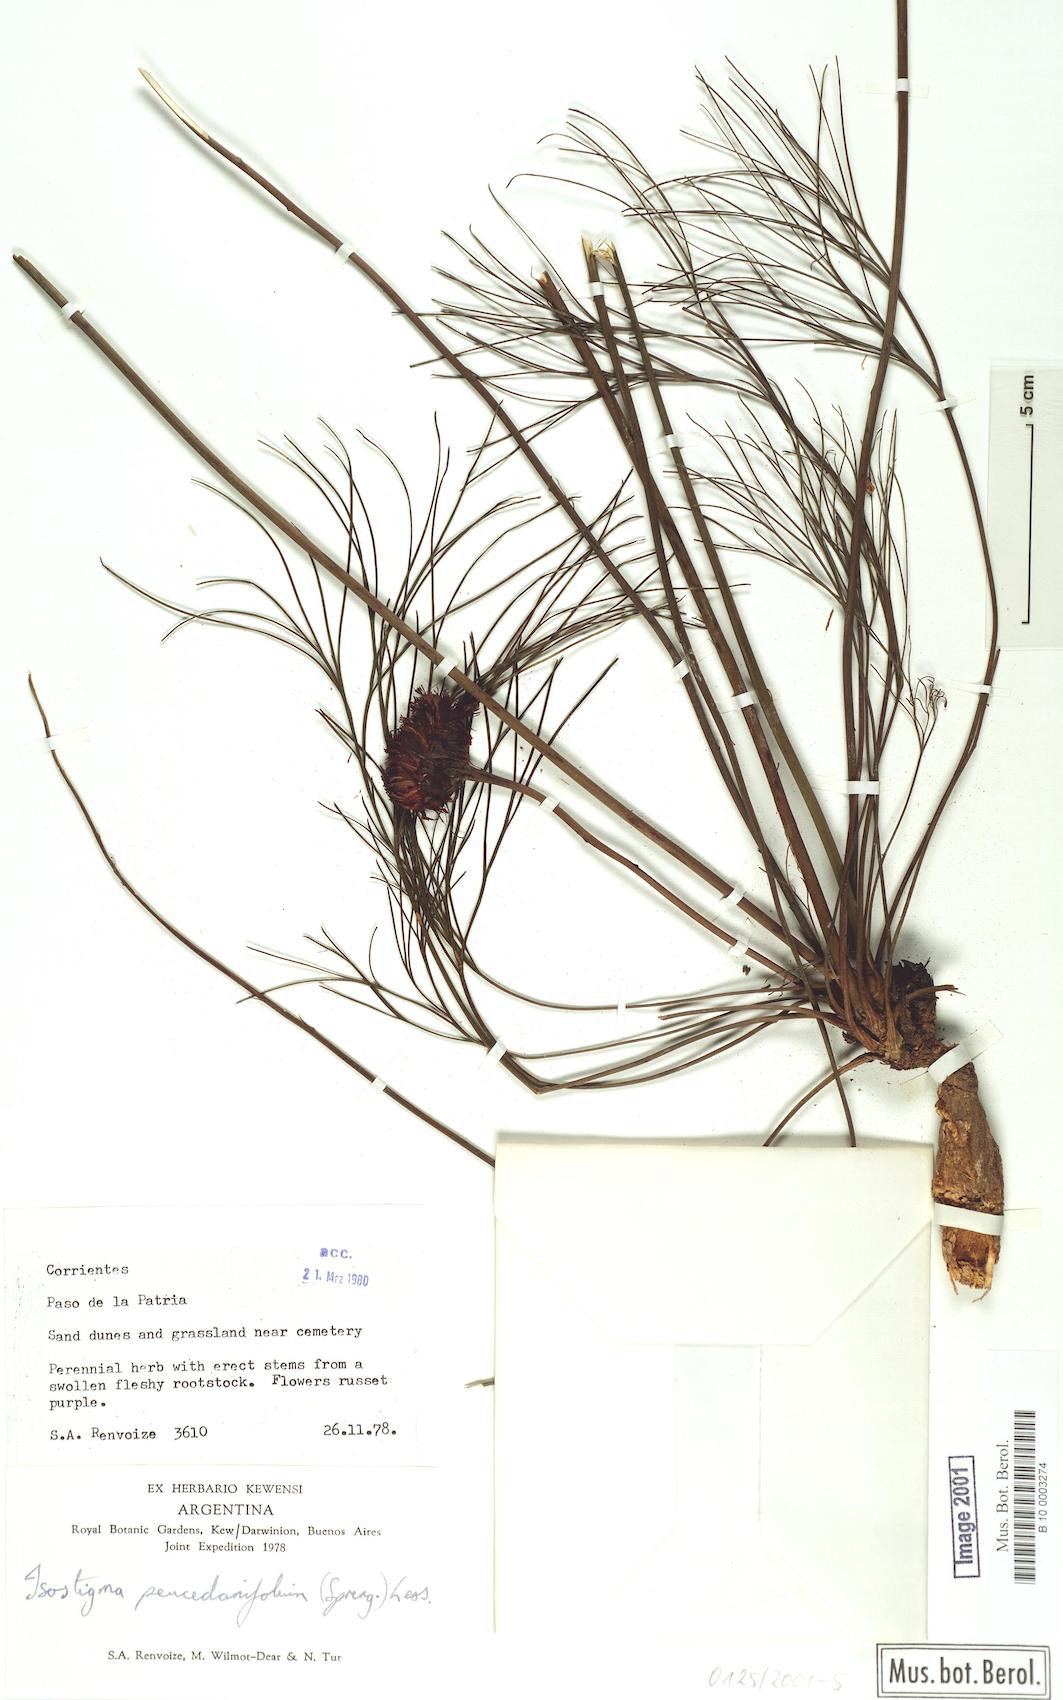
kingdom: Plantae
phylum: Tracheophyta
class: Magnoliopsida
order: Asterales
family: Asteraceae
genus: Isostigma
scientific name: Isostigma peucedanifolium
